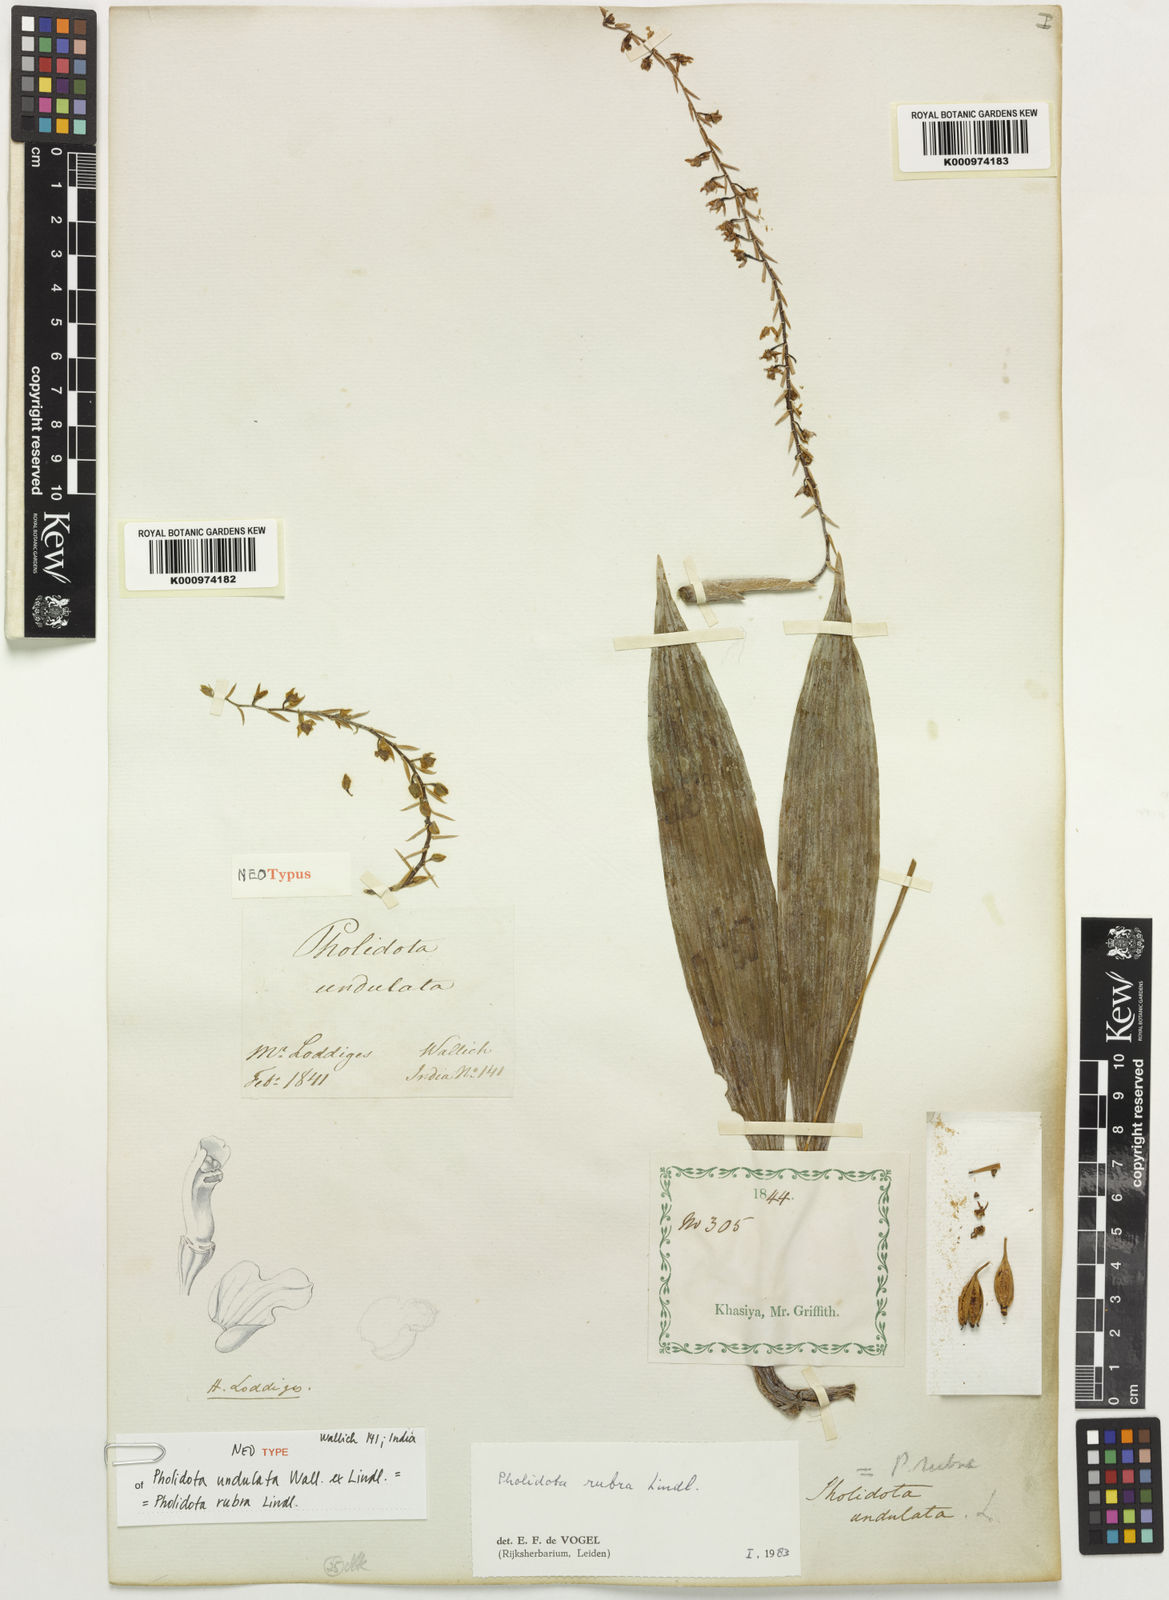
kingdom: Plantae
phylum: Tracheophyta
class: Liliopsida
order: Asparagales
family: Orchidaceae
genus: Coelogyne
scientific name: Coelogyne rubra
